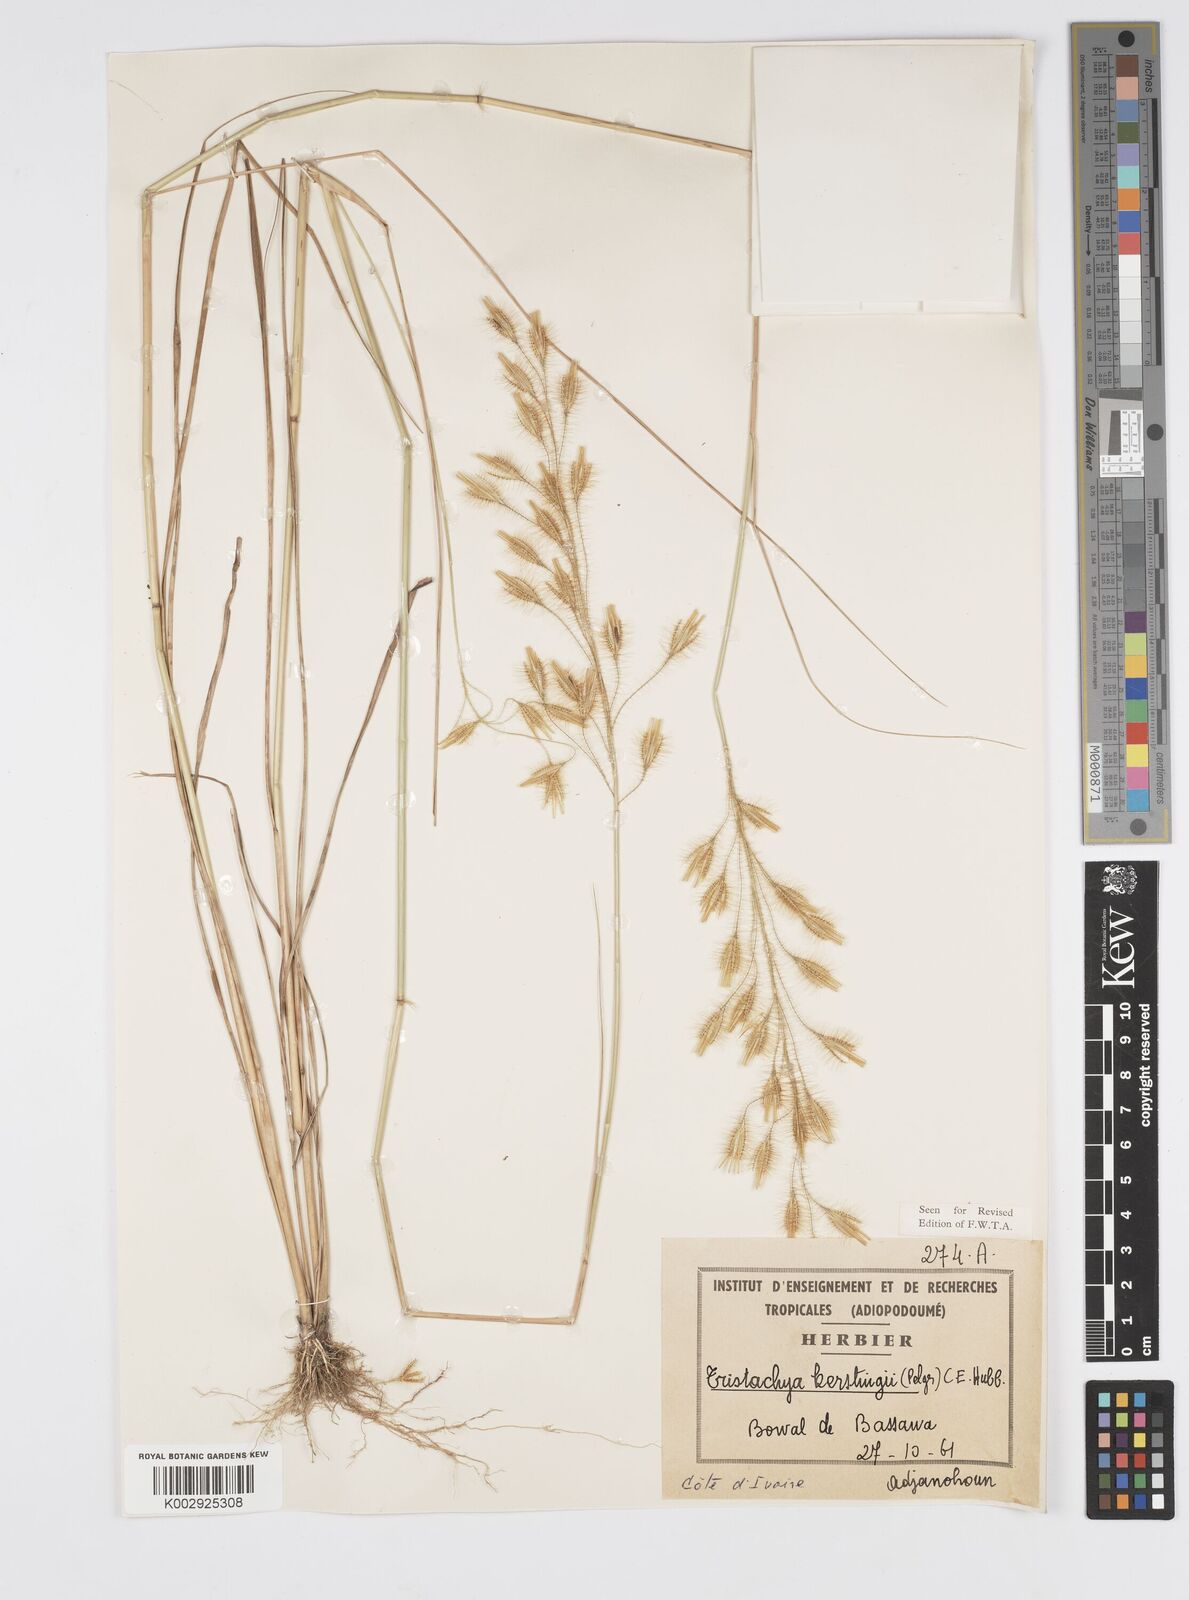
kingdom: Plantae
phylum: Tracheophyta
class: Liliopsida
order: Poales
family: Poaceae
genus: Loudetiopsis
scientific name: Loudetiopsis kerstingii
